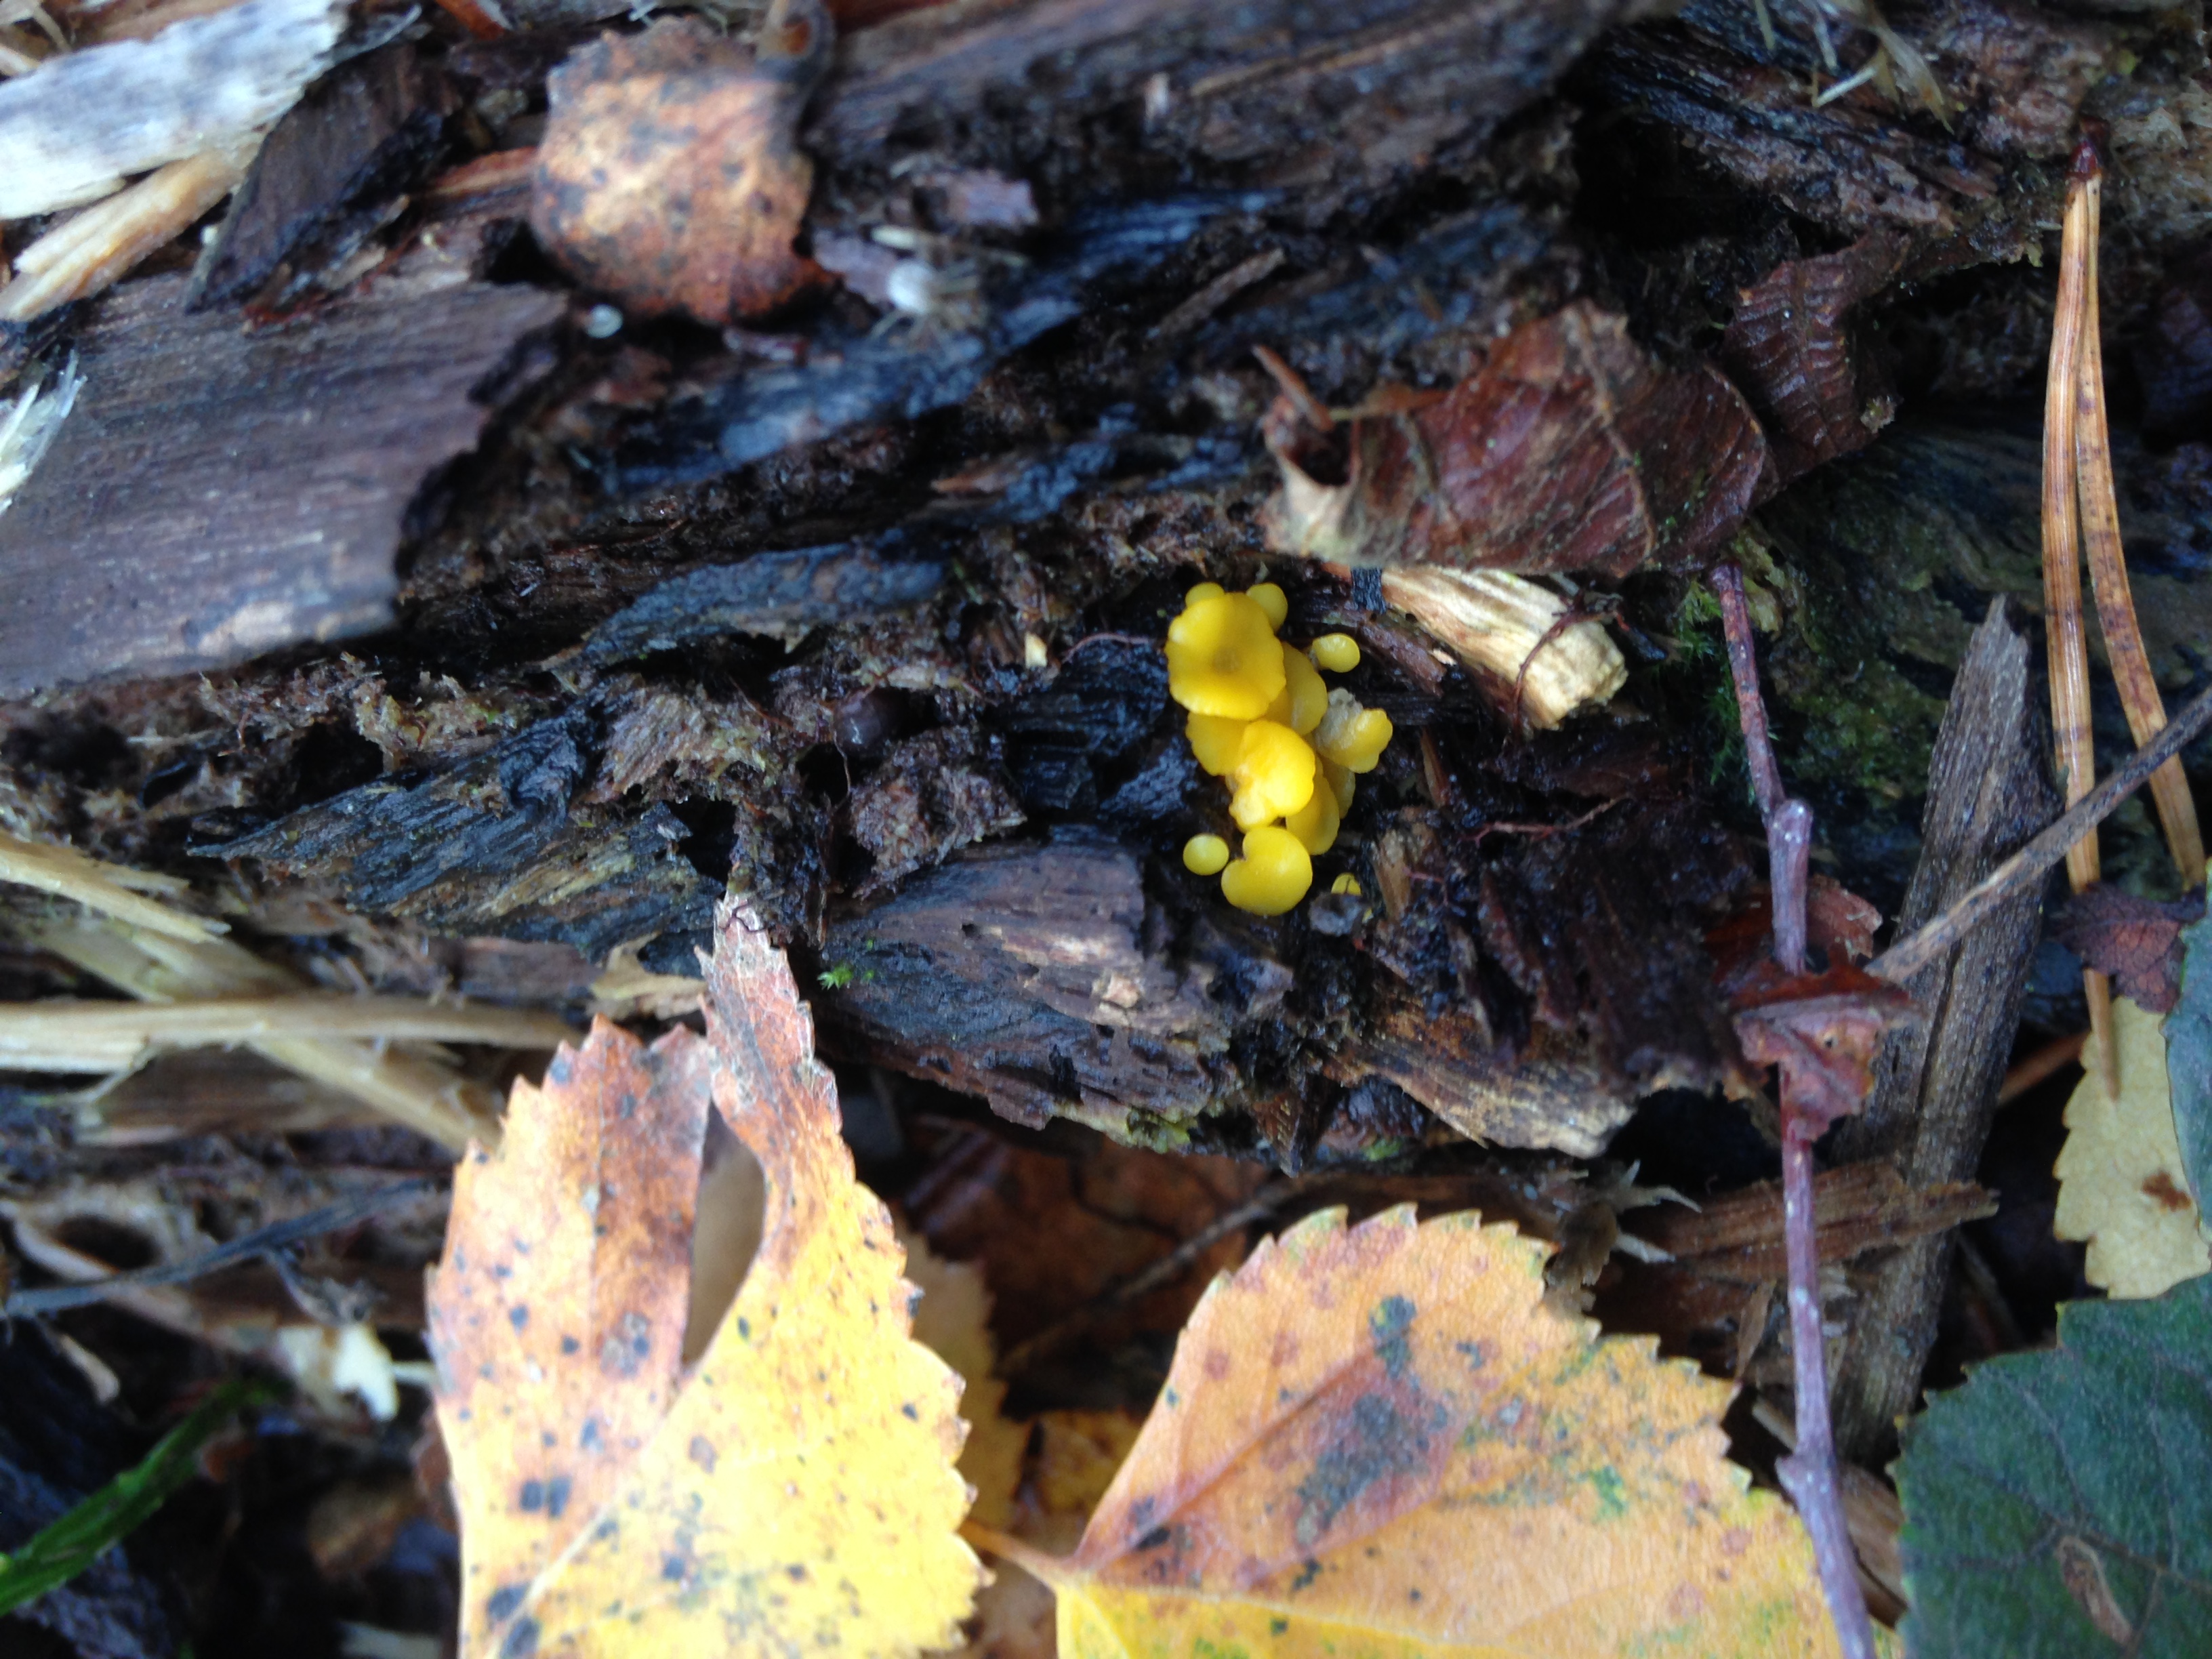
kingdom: Fungi
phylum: Ascomycota
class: Leotiomycetes
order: Helotiales
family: Pezizellaceae
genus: Calycina
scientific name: Calycina citrina
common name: Yellow fairy cups
